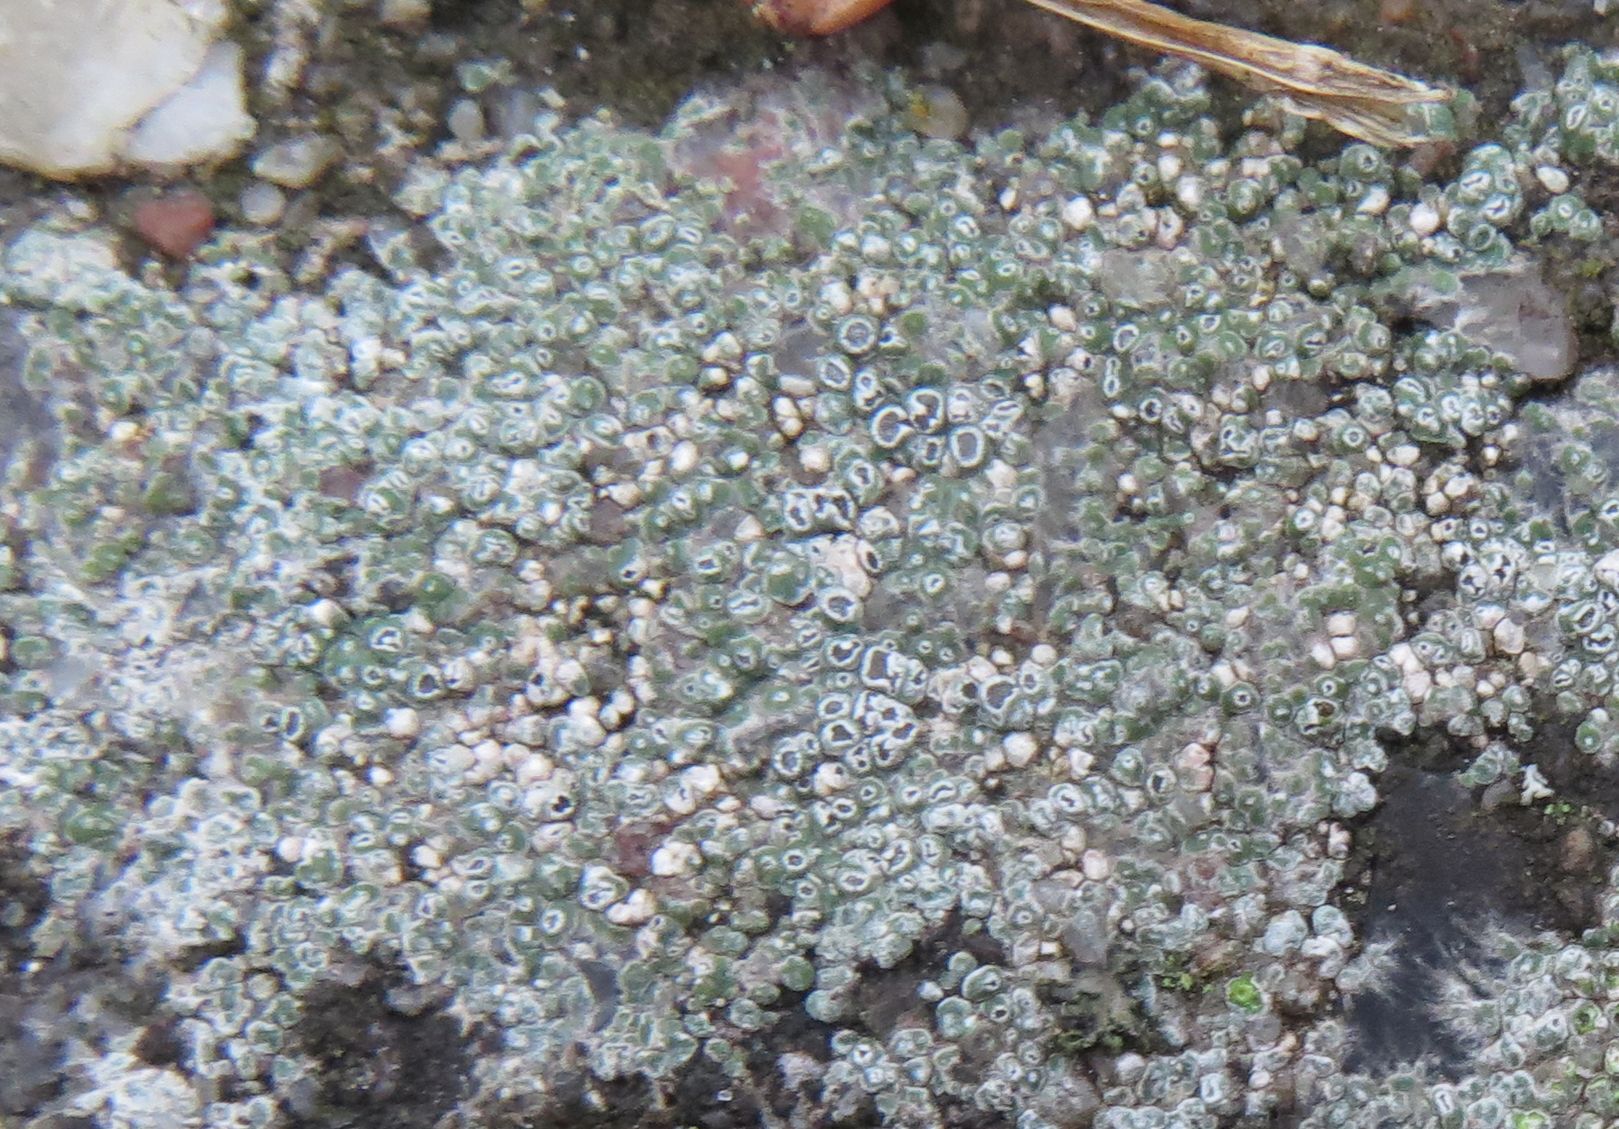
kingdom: Fungi
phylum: Ascomycota
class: Lecanoromycetes
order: Pertusariales
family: Megasporaceae
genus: Circinaria
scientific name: Circinaria contorta
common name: indviklet hulskivelav
